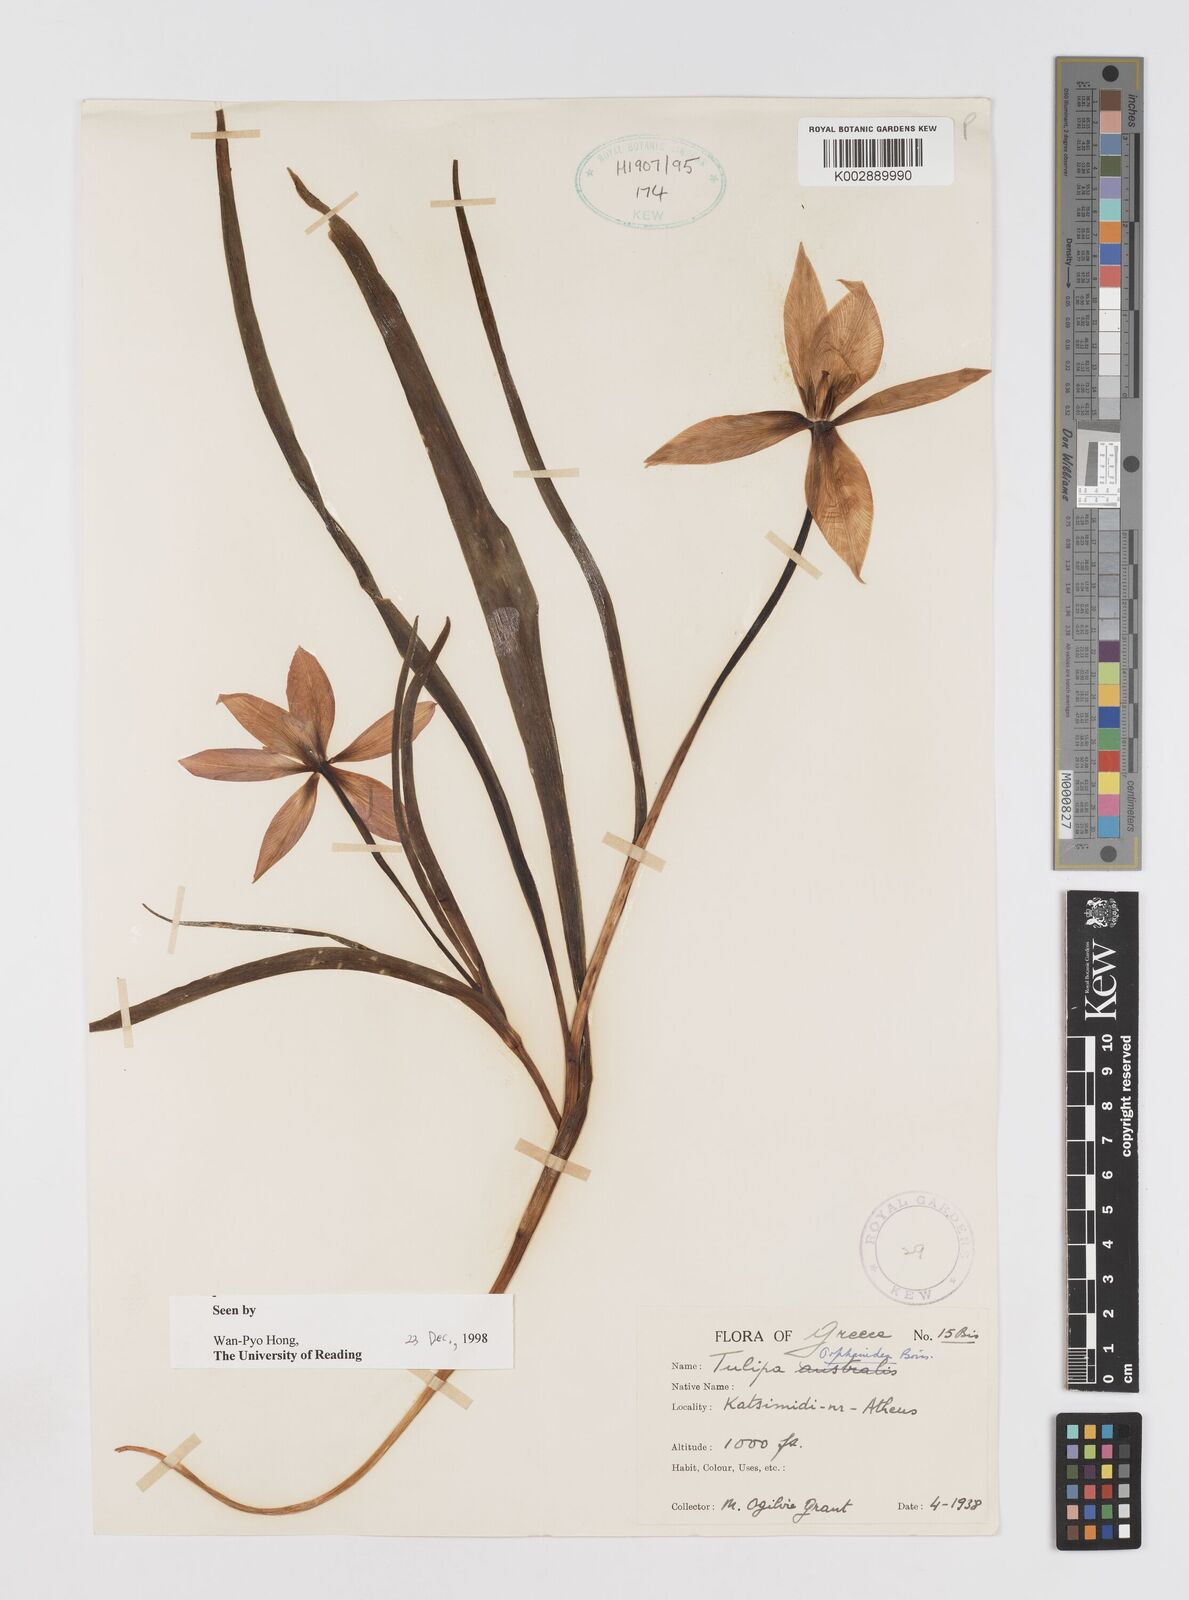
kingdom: Plantae
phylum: Tracheophyta
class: Liliopsida
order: Liliales
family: Liliaceae
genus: Tulipa
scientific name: Tulipa orphanidea
